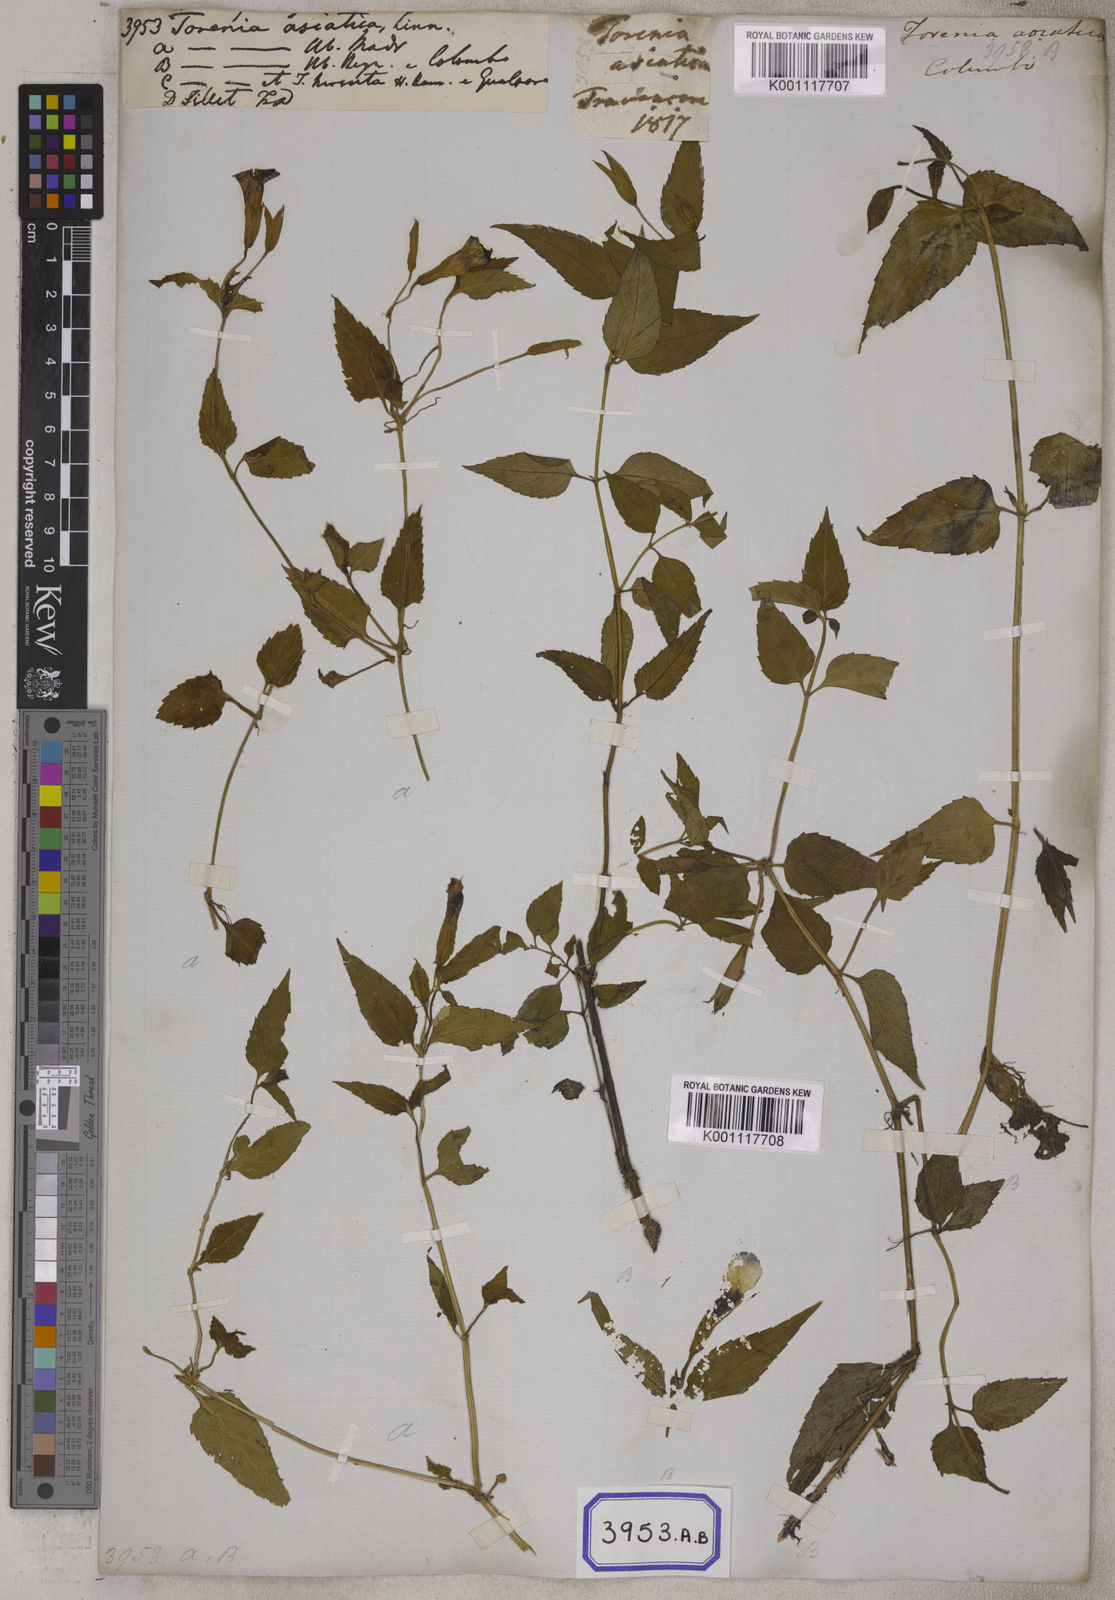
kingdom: Plantae
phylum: Tracheophyta
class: Magnoliopsida
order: Lamiales
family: Linderniaceae
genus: Torenia
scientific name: Torenia asiatica
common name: Wishbone flower
